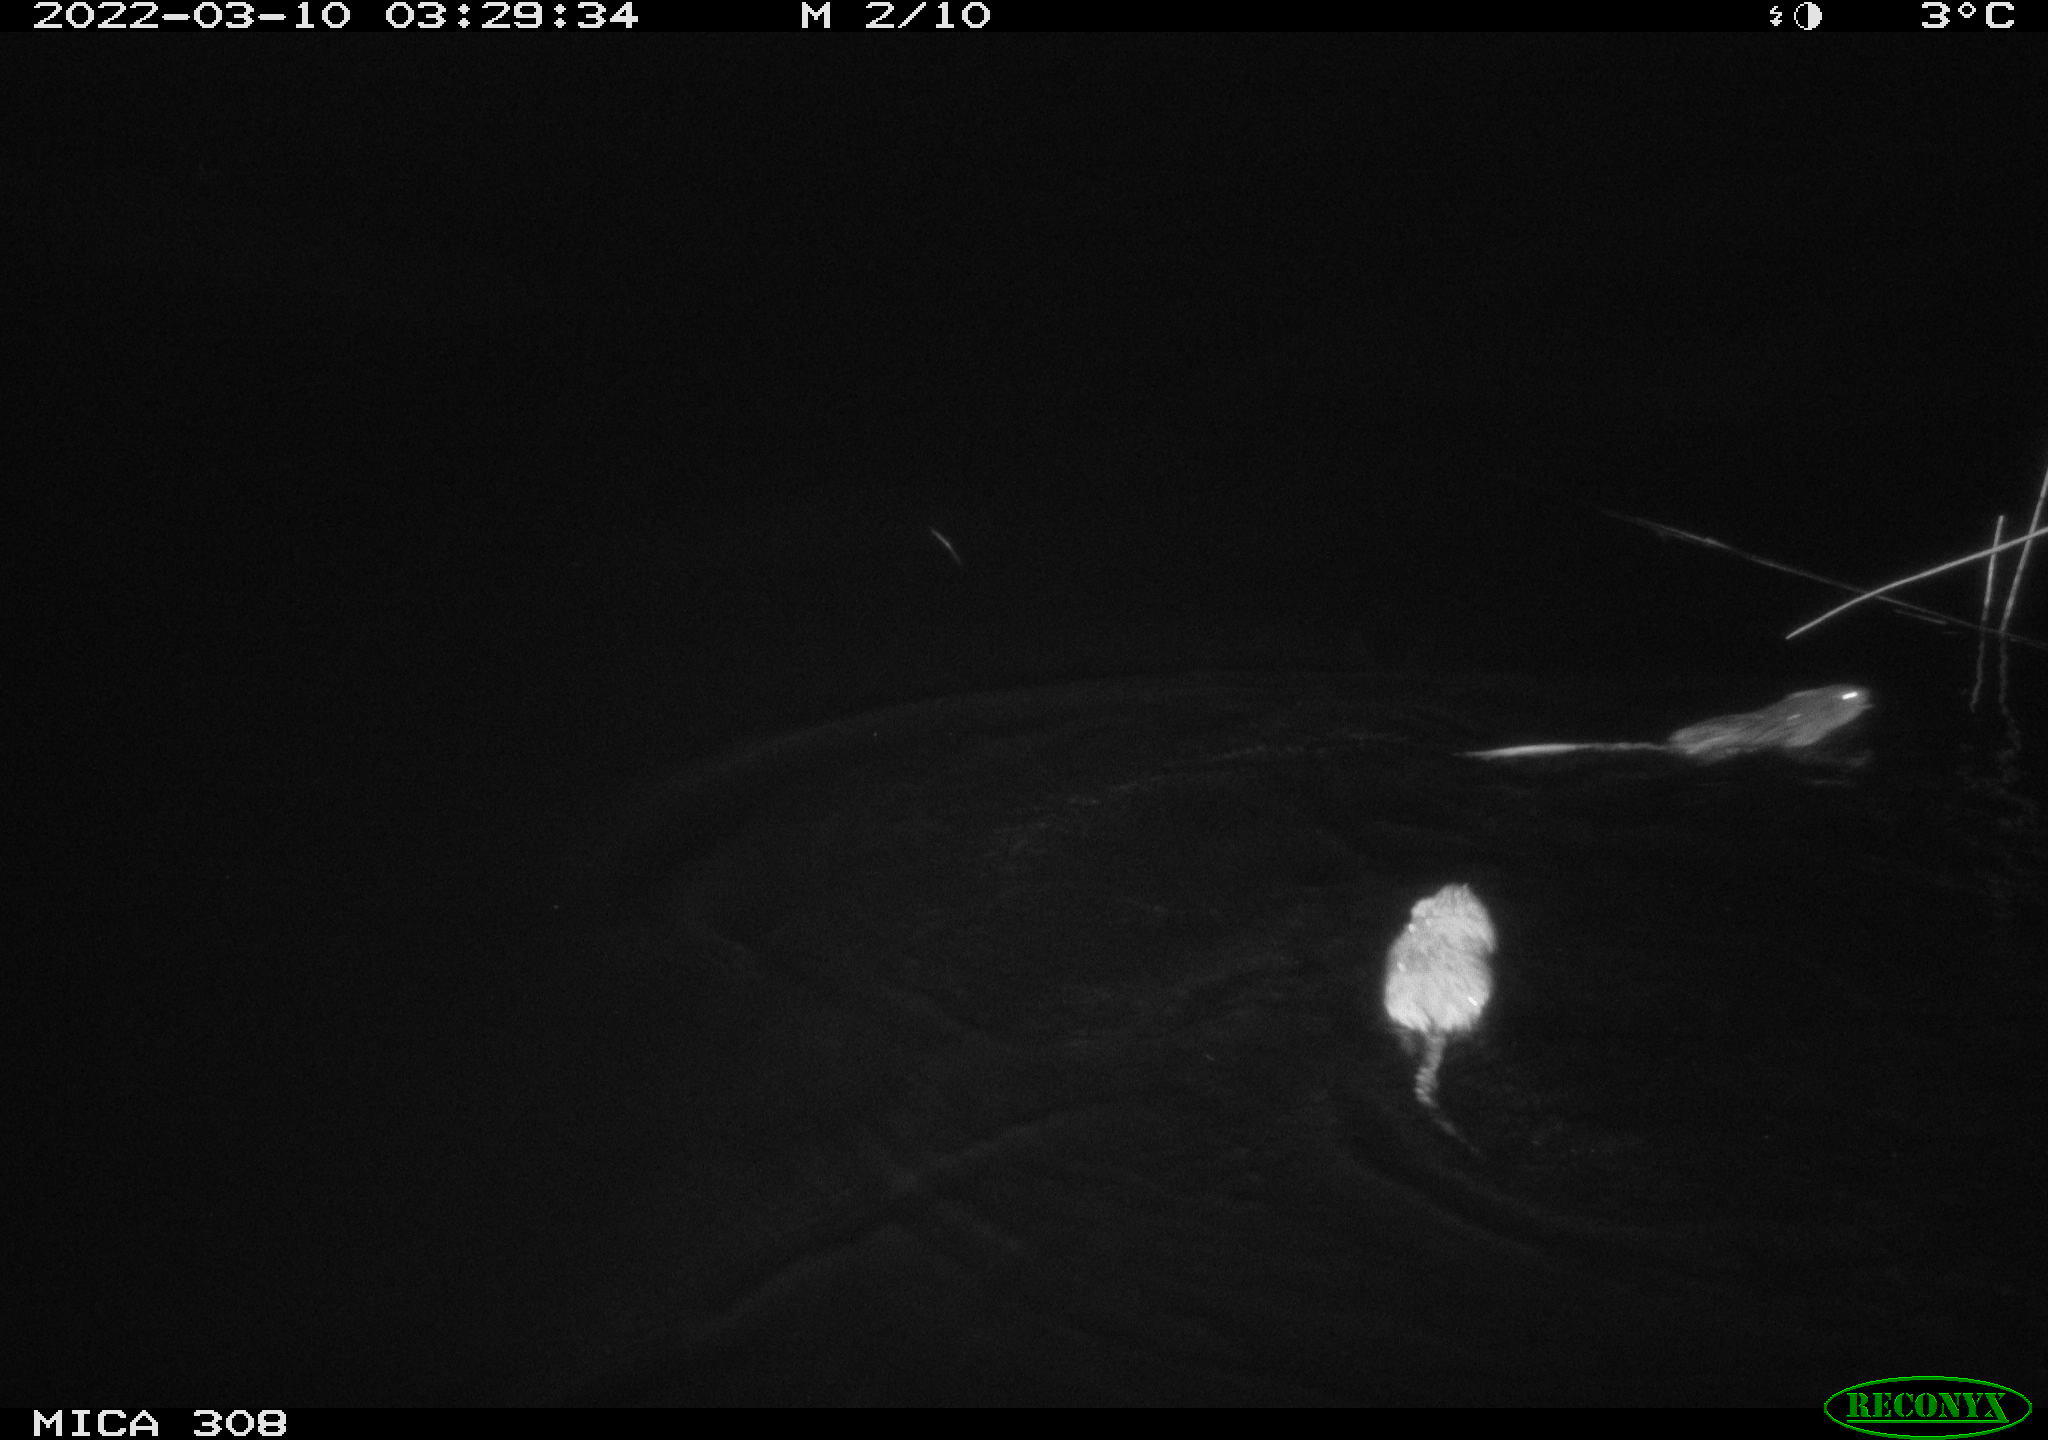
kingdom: Animalia
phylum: Chordata
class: Mammalia
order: Rodentia
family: Cricetidae
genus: Ondatra
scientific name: Ondatra zibethicus
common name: Muskrat
